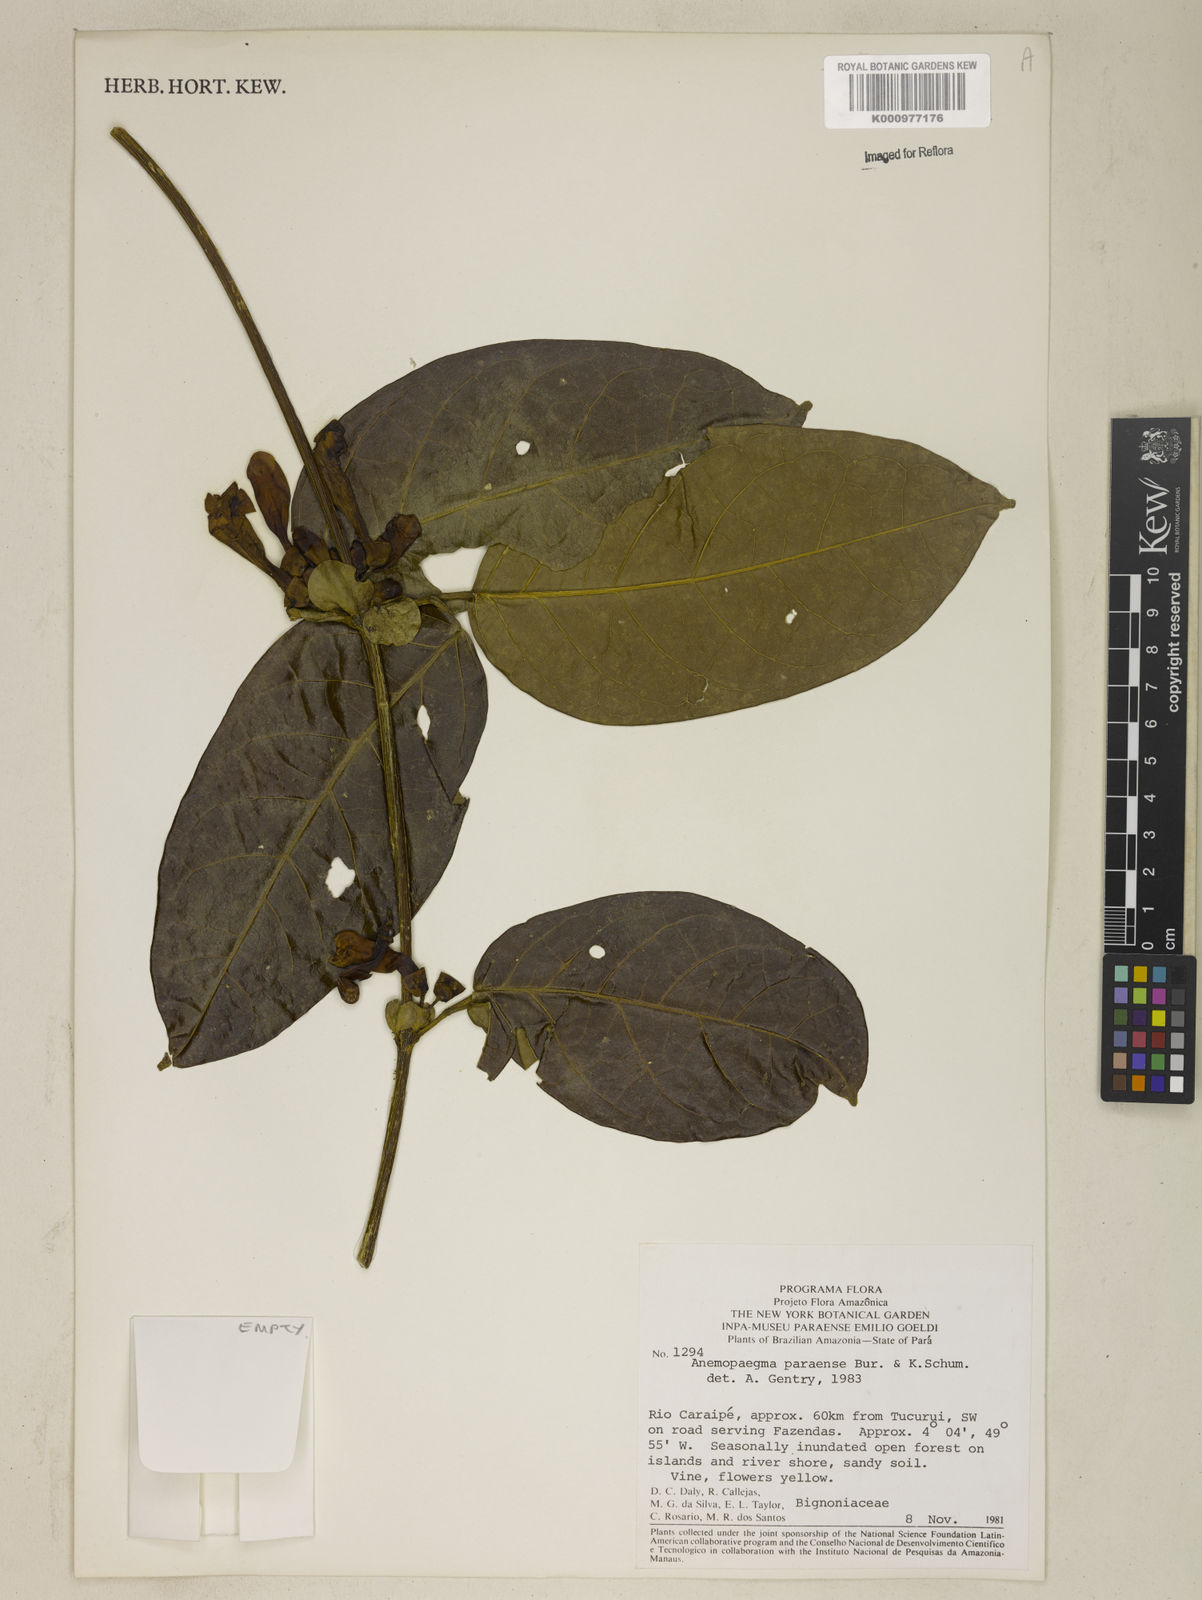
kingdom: Plantae
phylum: Tracheophyta
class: Magnoliopsida
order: Lamiales
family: Bignoniaceae
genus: Anemopaegma
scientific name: Anemopaegma
